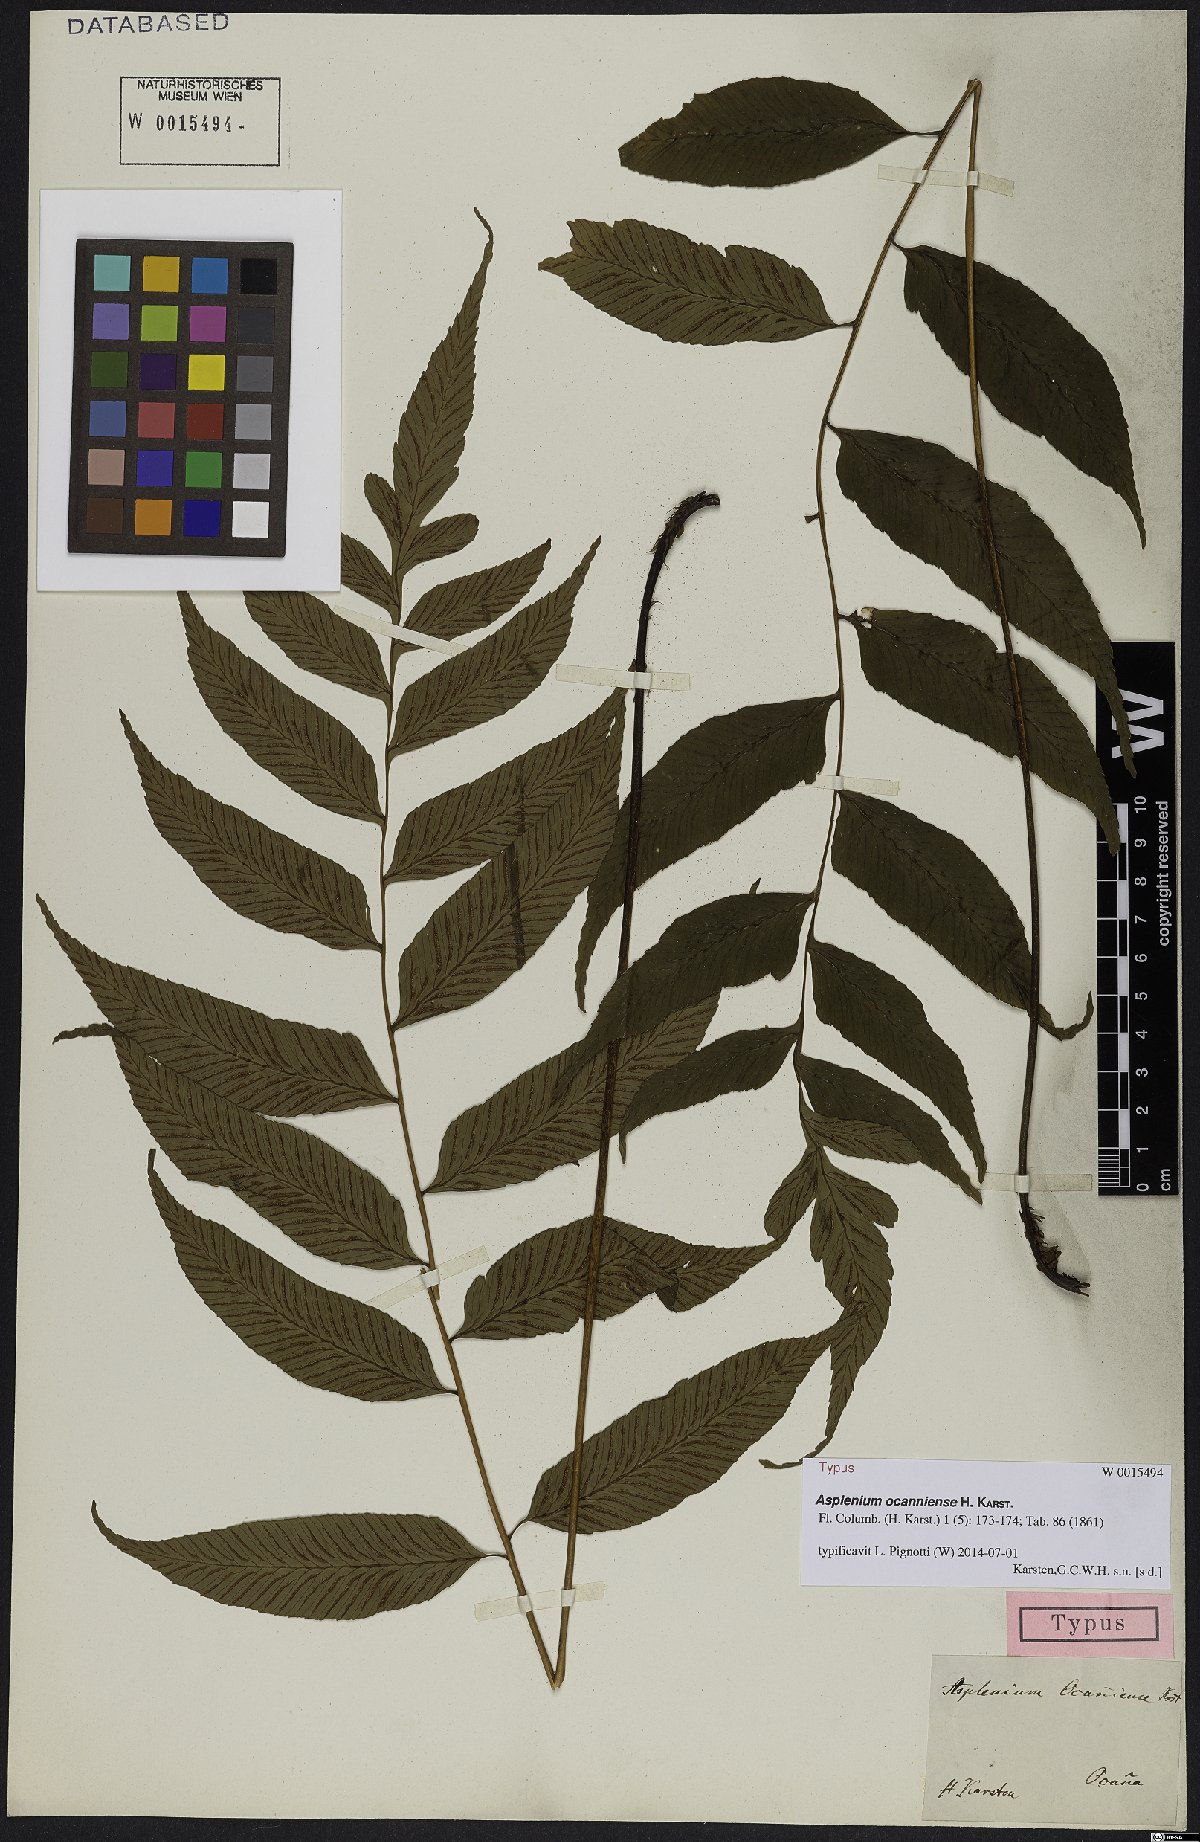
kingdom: Plantae
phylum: Tracheophyta
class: Polypodiopsida
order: Polypodiales
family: Aspleniaceae
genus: Asplenium
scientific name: Asplenium ocanniense
